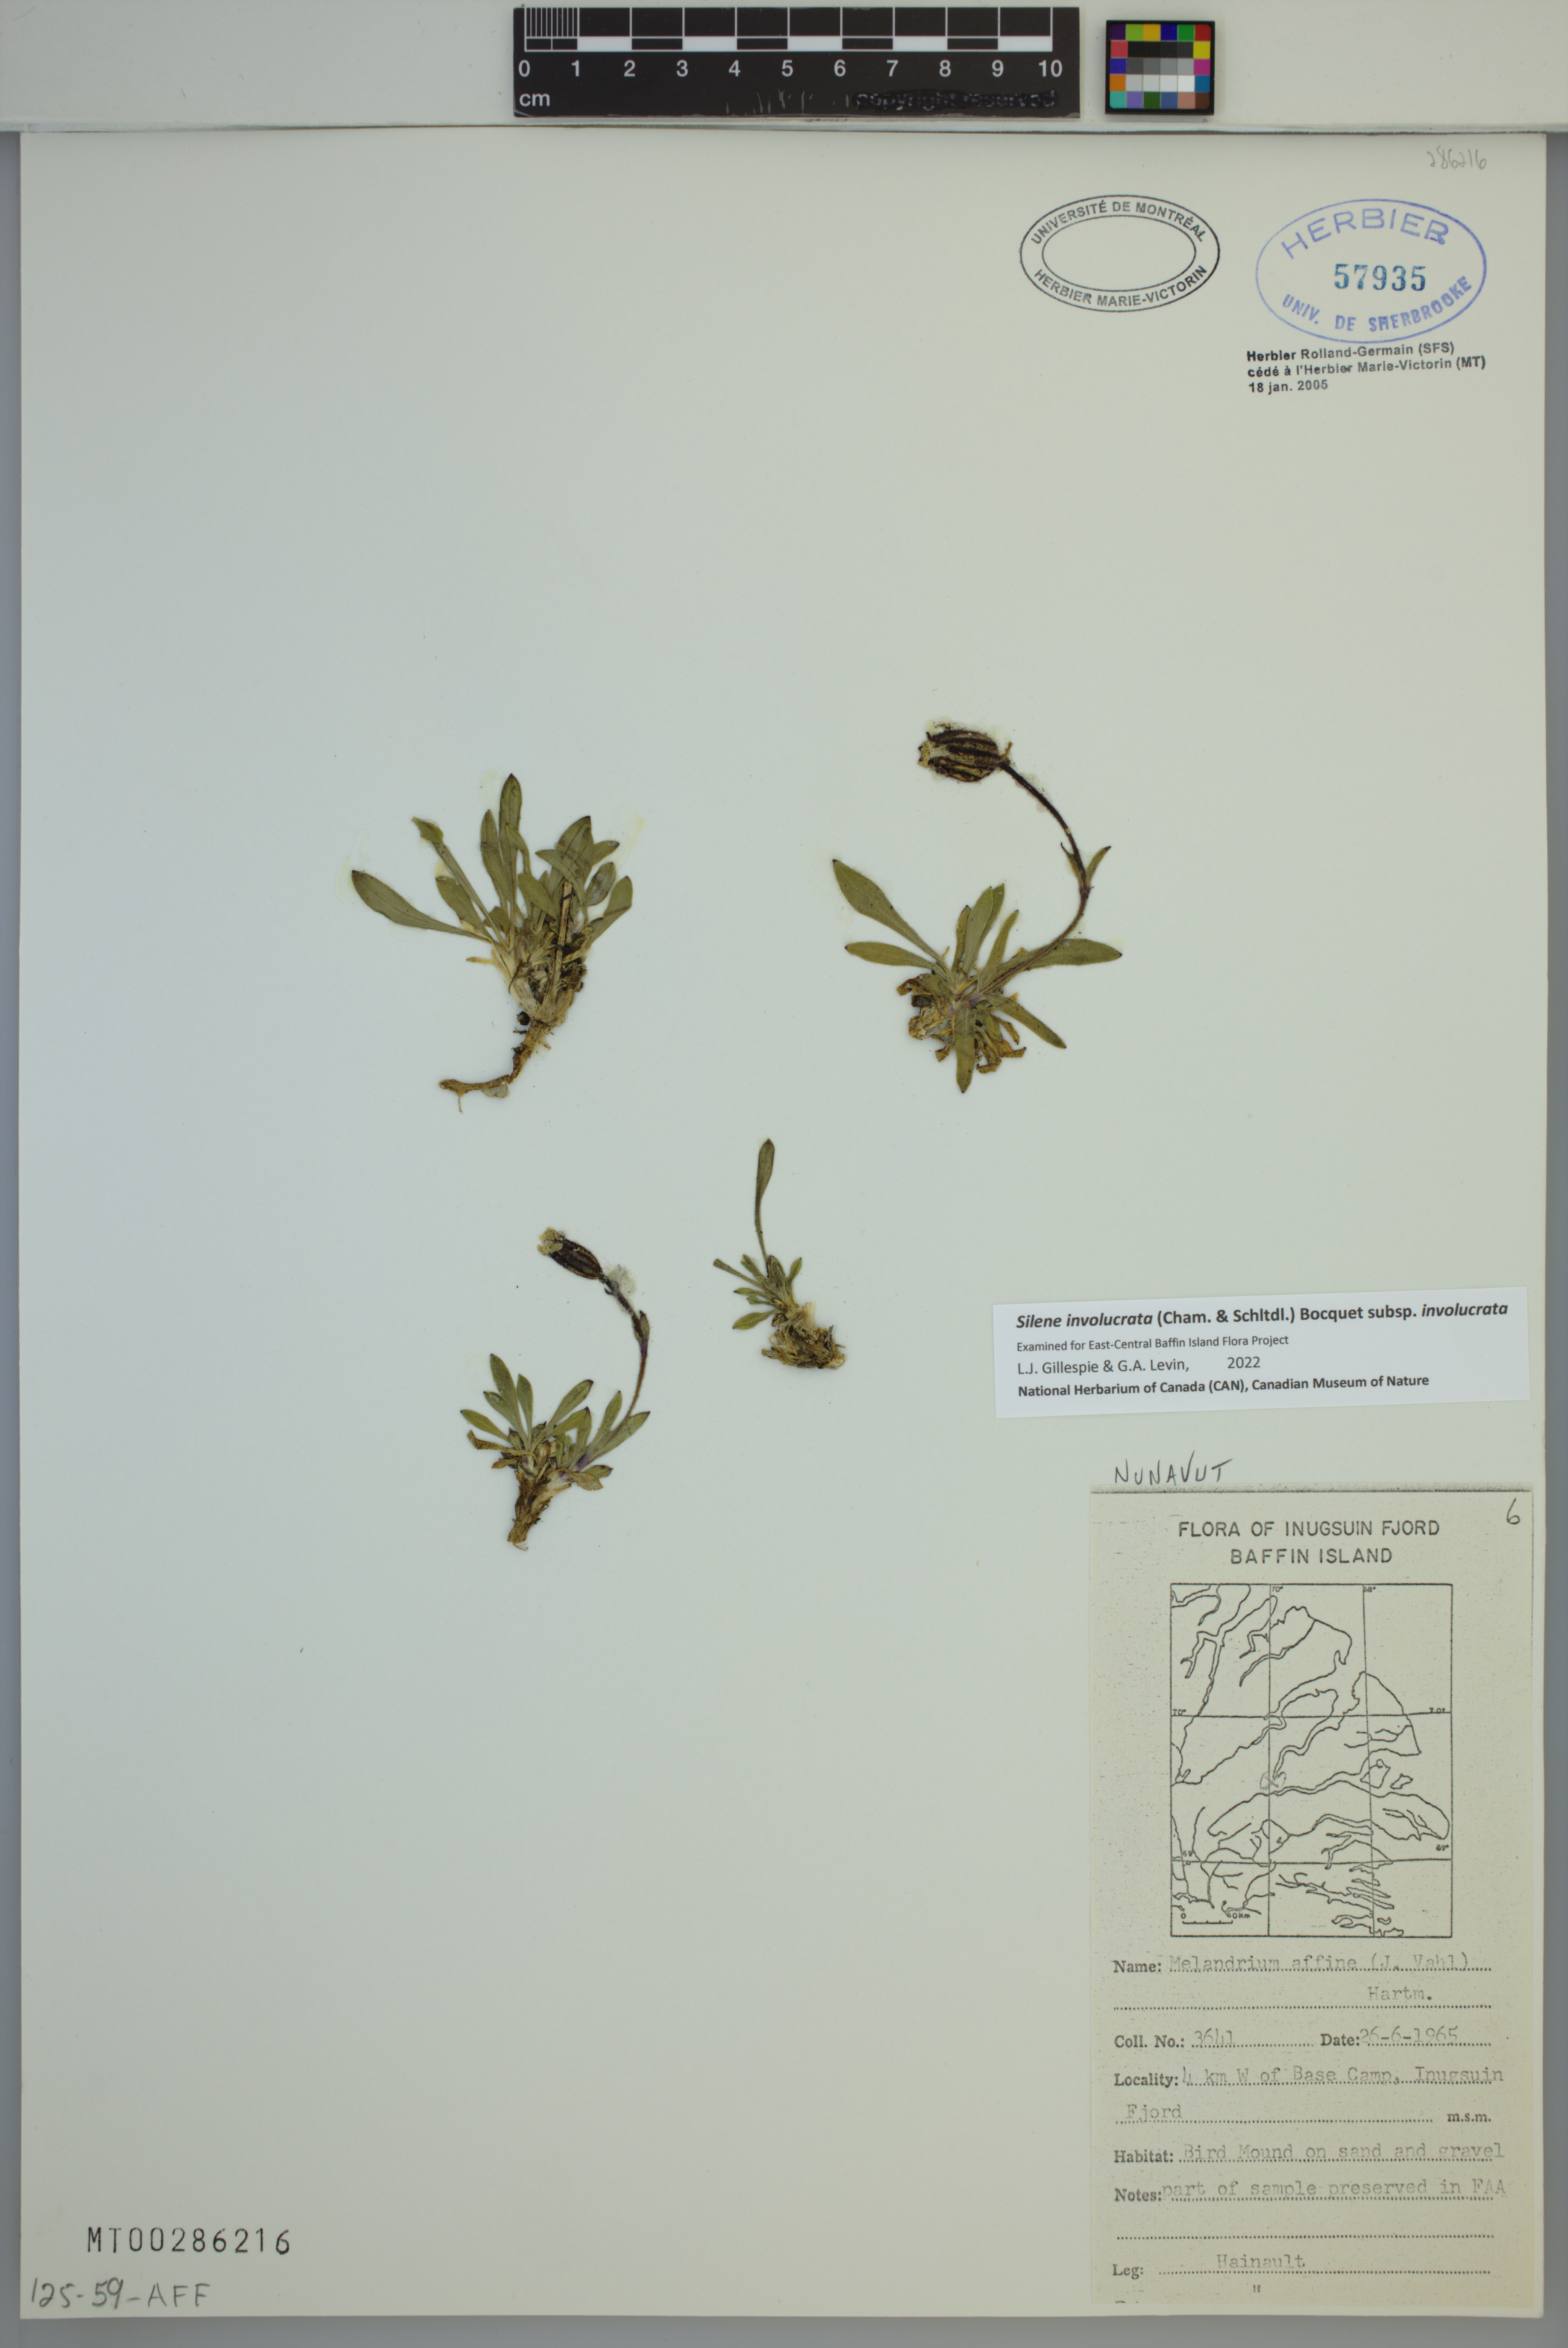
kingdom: Plantae
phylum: Tracheophyta
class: Magnoliopsida
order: Caryophyllales
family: Caryophyllaceae
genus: Silene
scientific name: Silene involucrata
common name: Greater arctic campion
